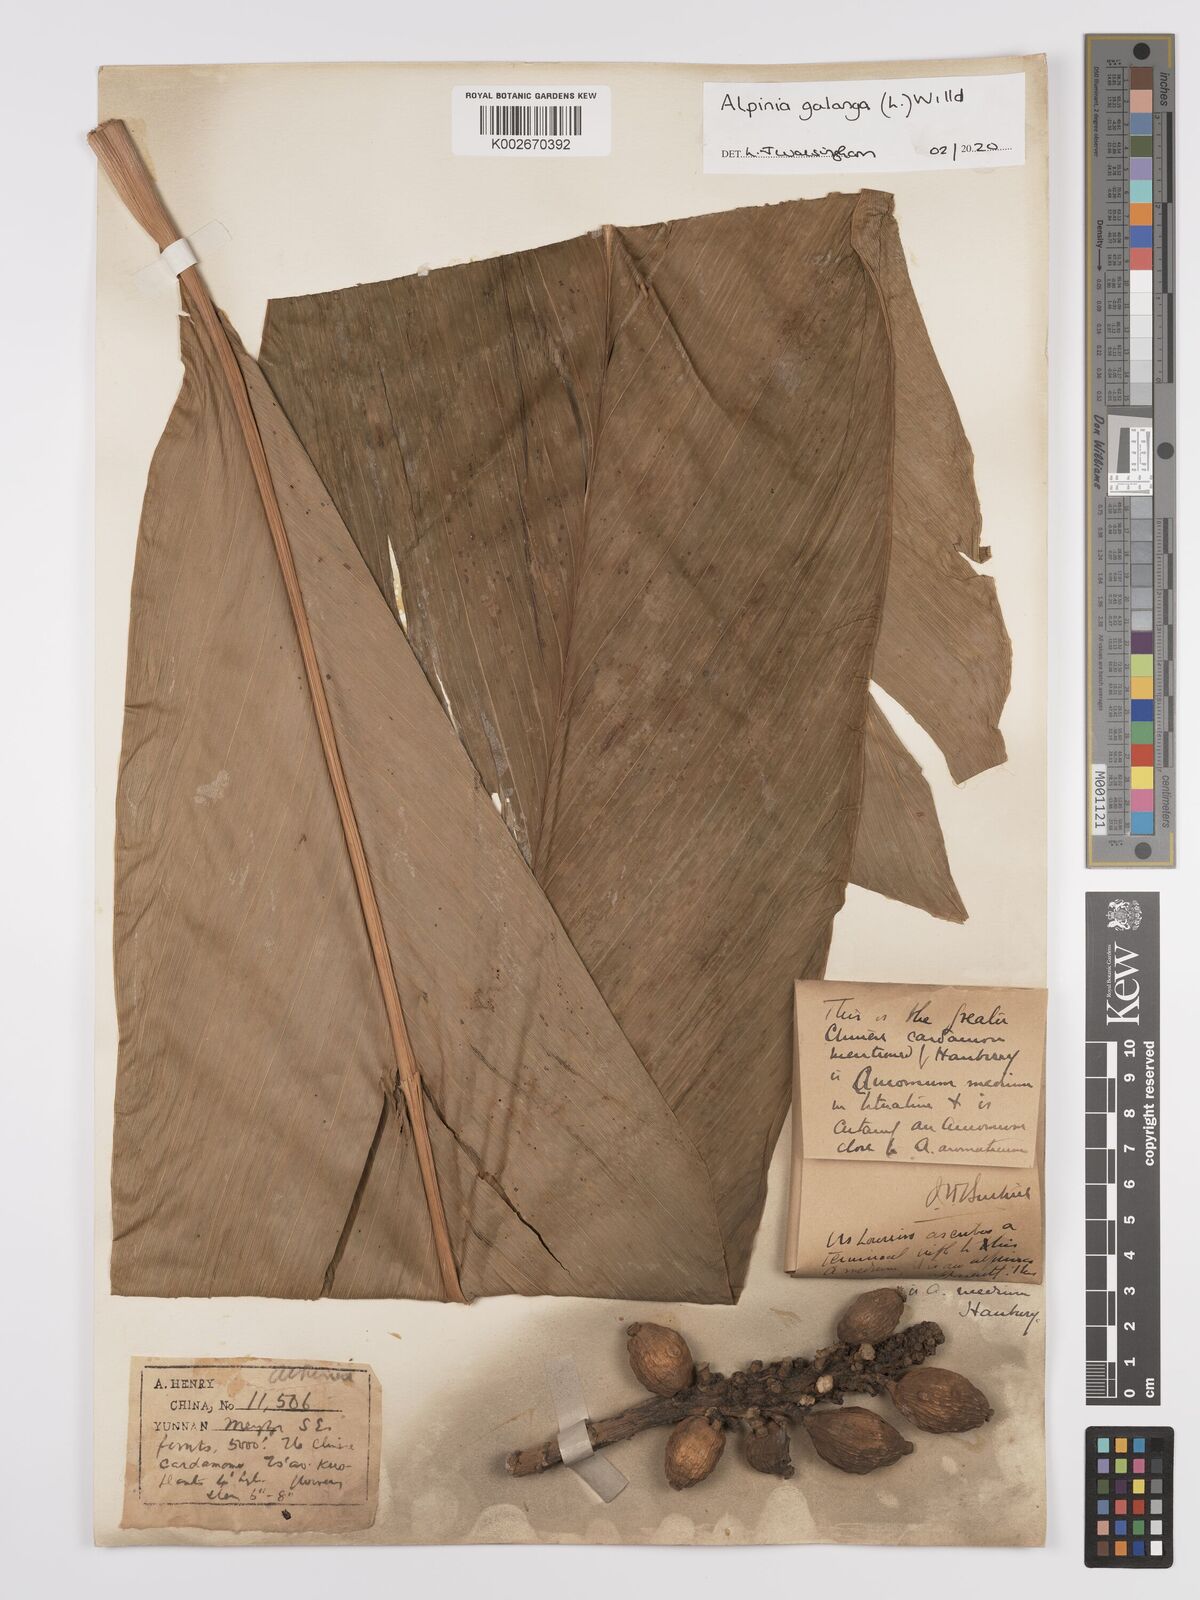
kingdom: Plantae
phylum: Tracheophyta
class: Liliopsida
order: Zingiberales
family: Zingiberaceae
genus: Alpinia
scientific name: Alpinia galanga
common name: Siamese-ginger
